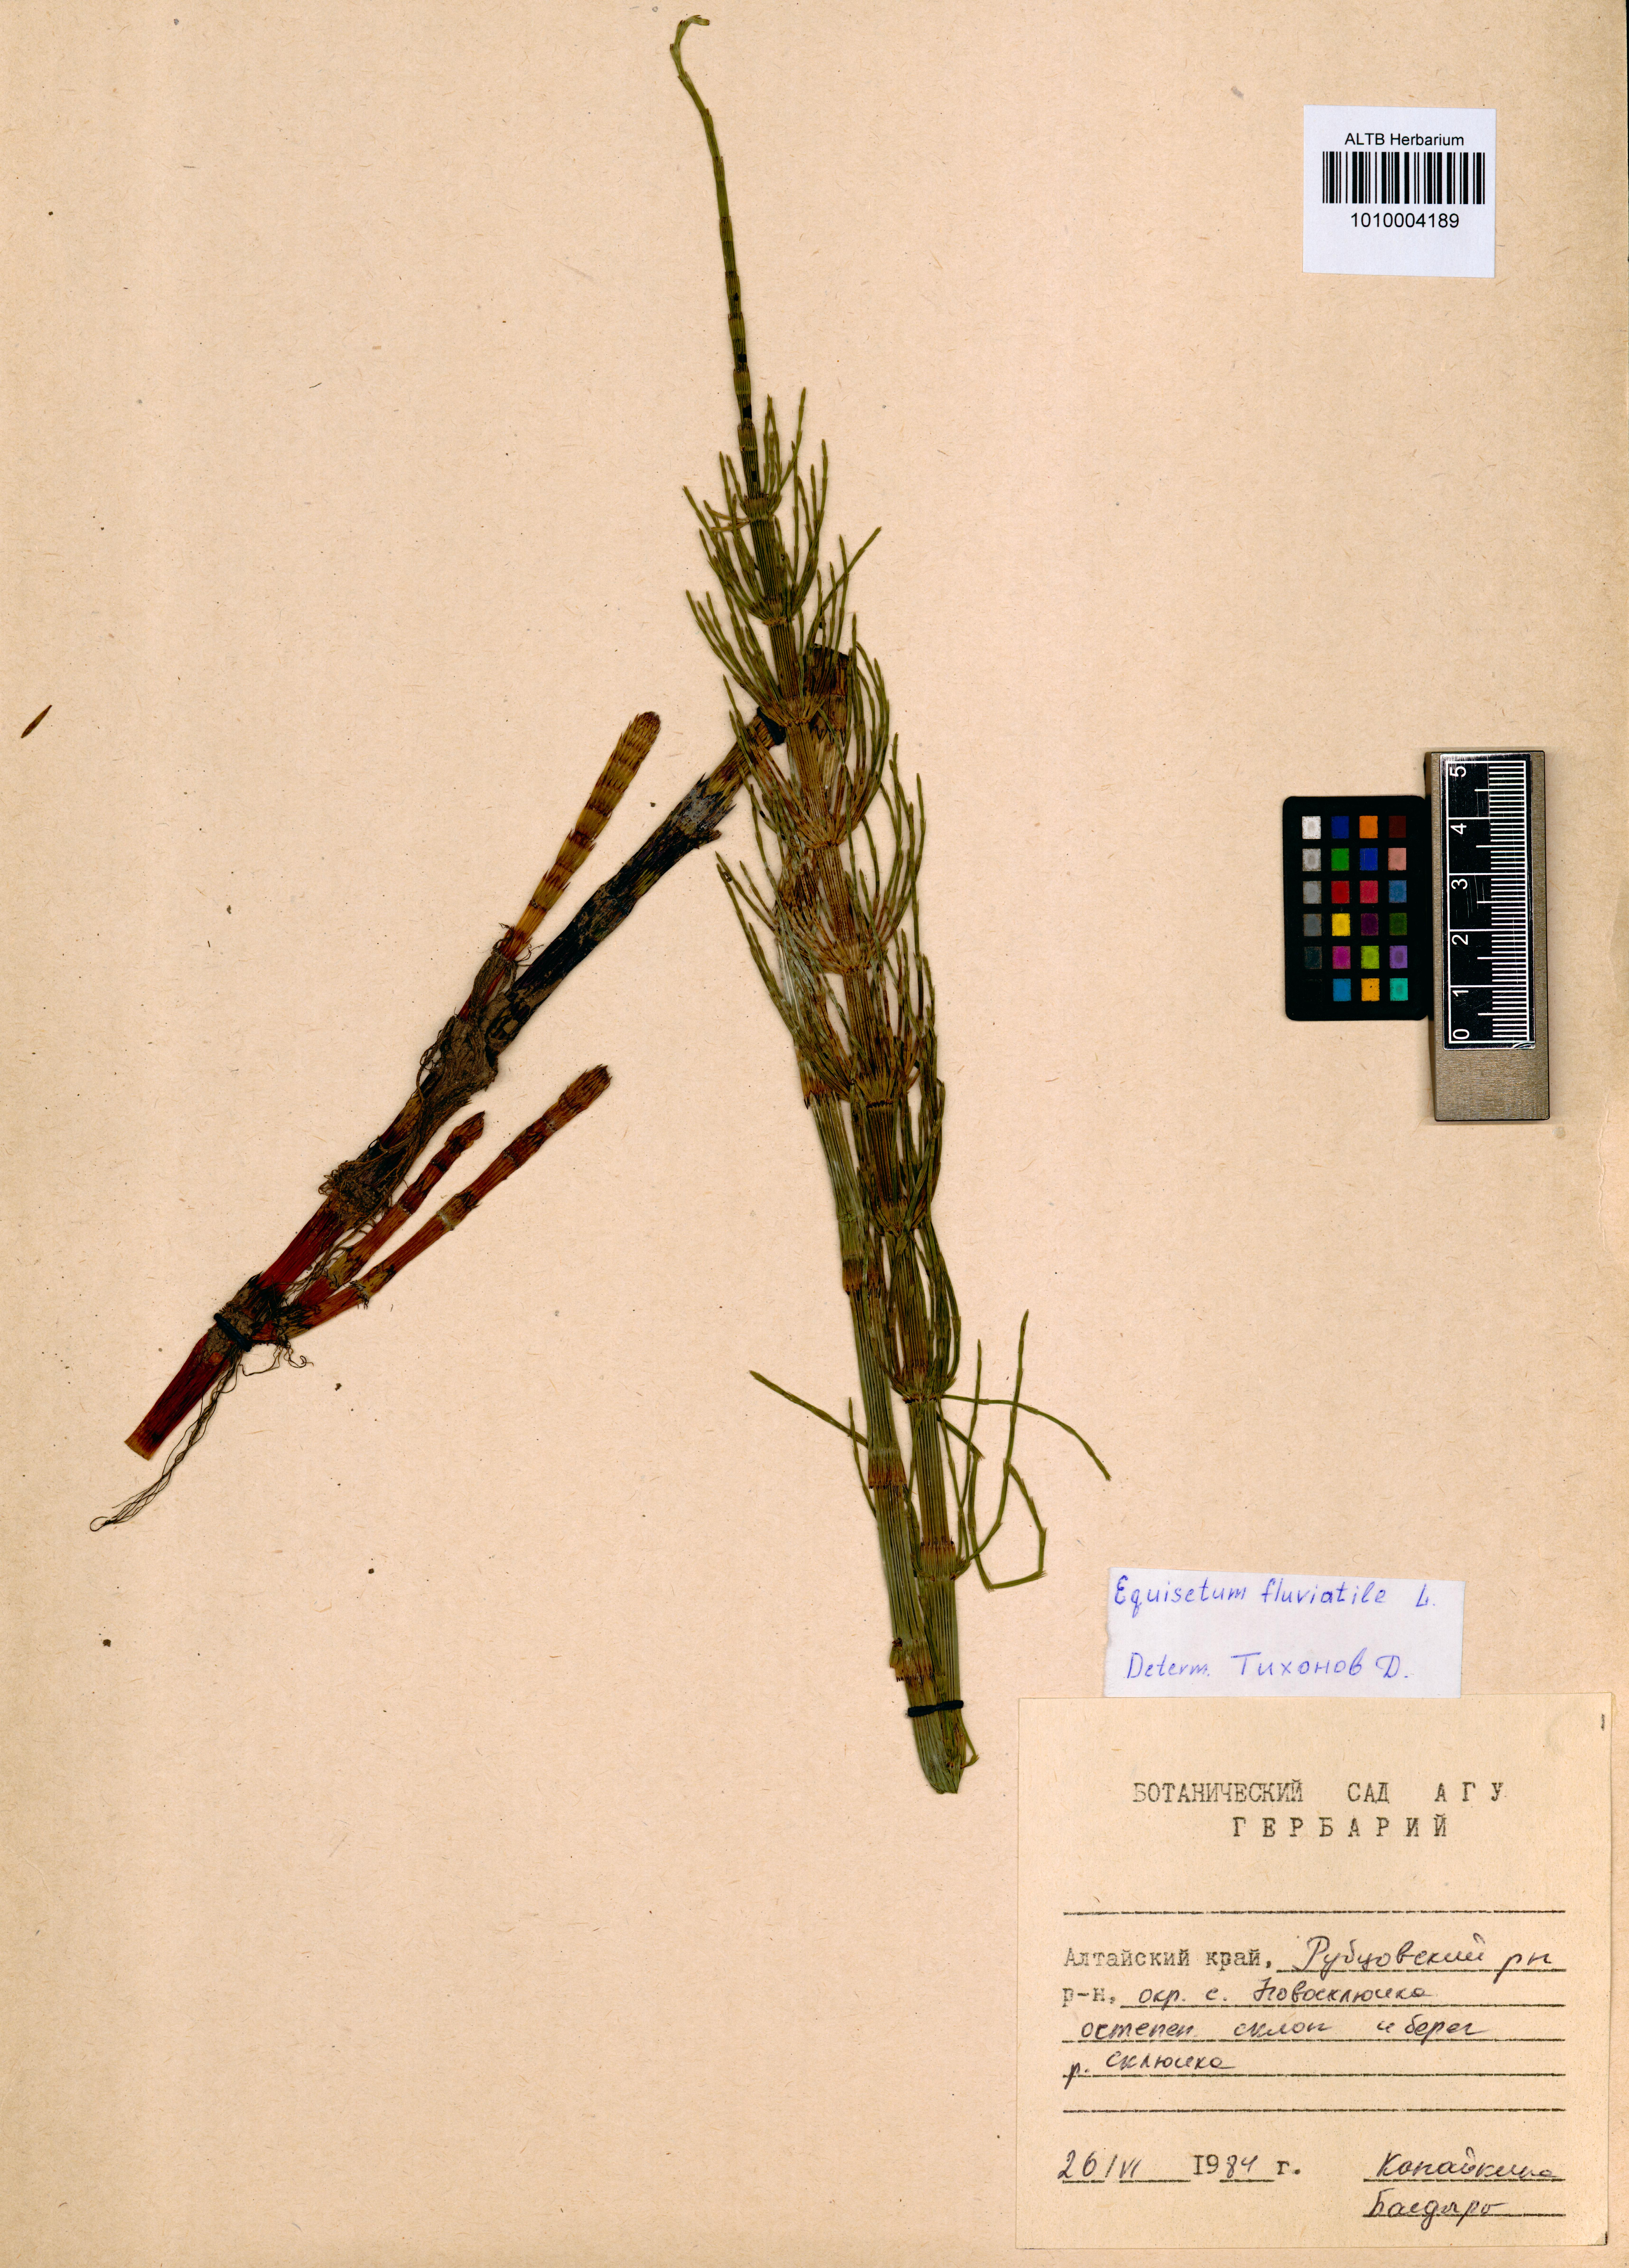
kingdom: Plantae
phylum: Tracheophyta
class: Polypodiopsida
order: Equisetales
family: Equisetaceae
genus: Equisetum
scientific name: Equisetum fluviatile
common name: Water horsetail
